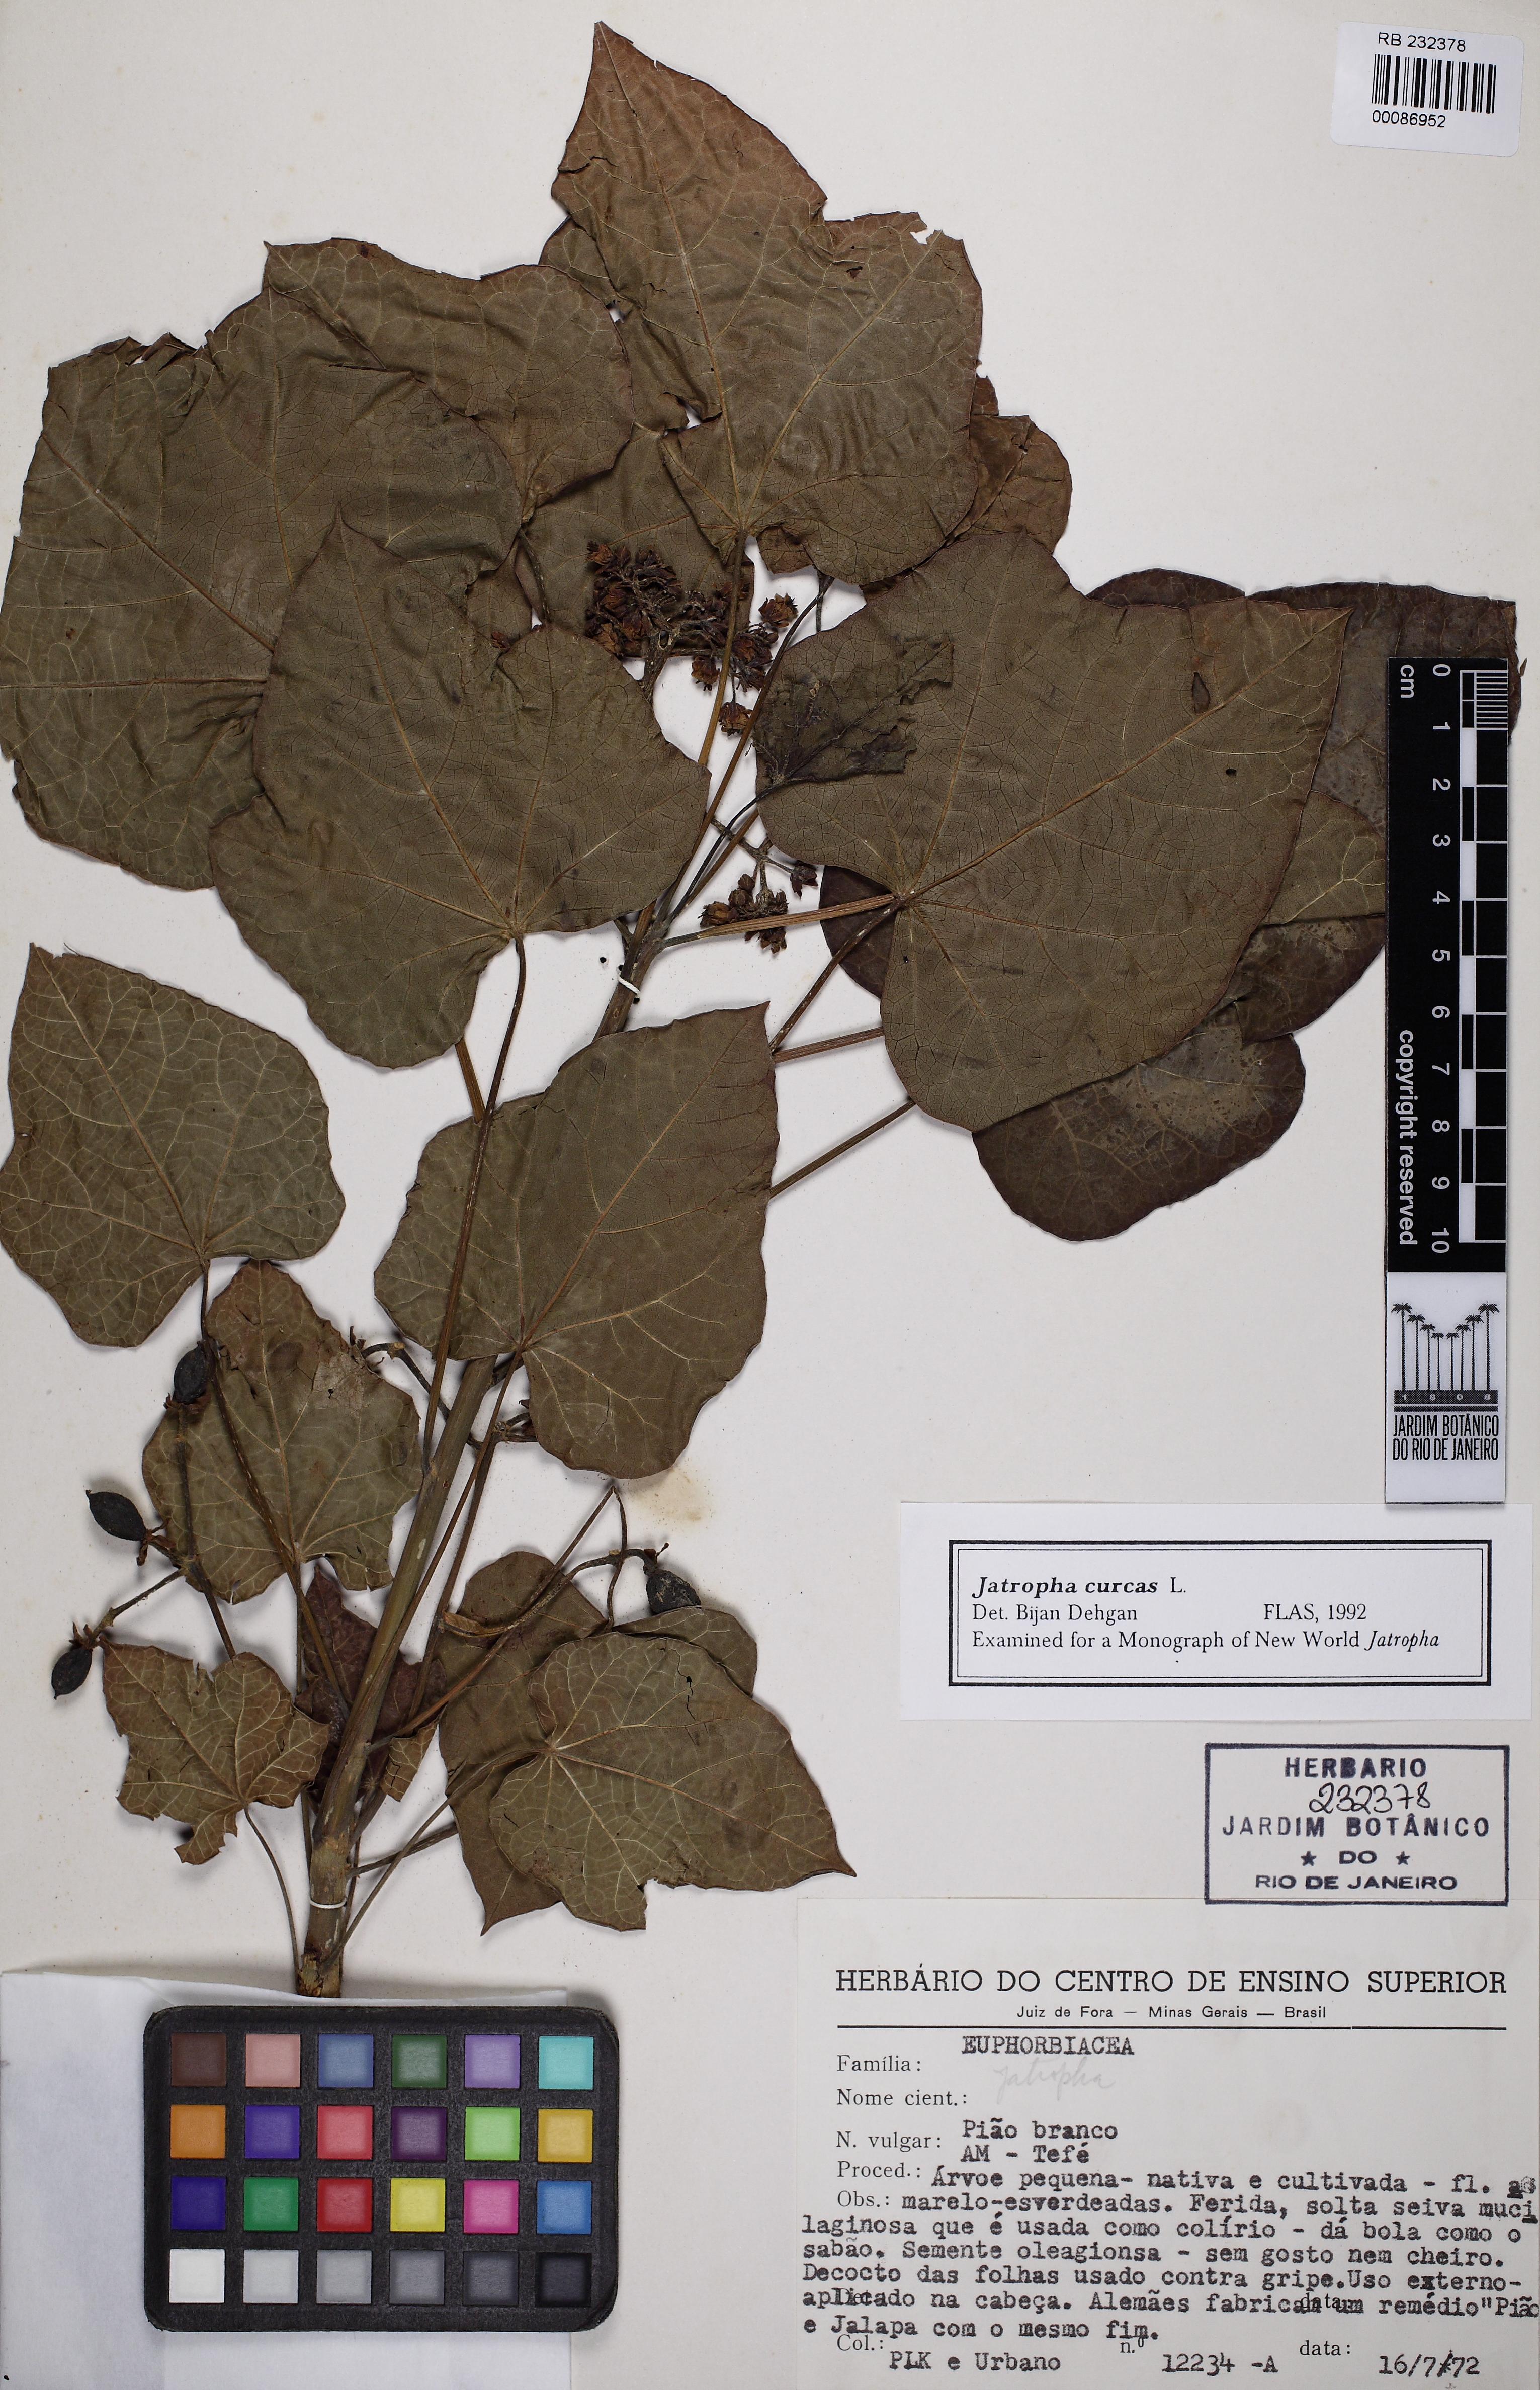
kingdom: Plantae
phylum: Tracheophyta
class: Magnoliopsida
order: Malpighiales
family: Euphorbiaceae
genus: Jatropha
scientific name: Jatropha curcas
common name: Barbados nut
